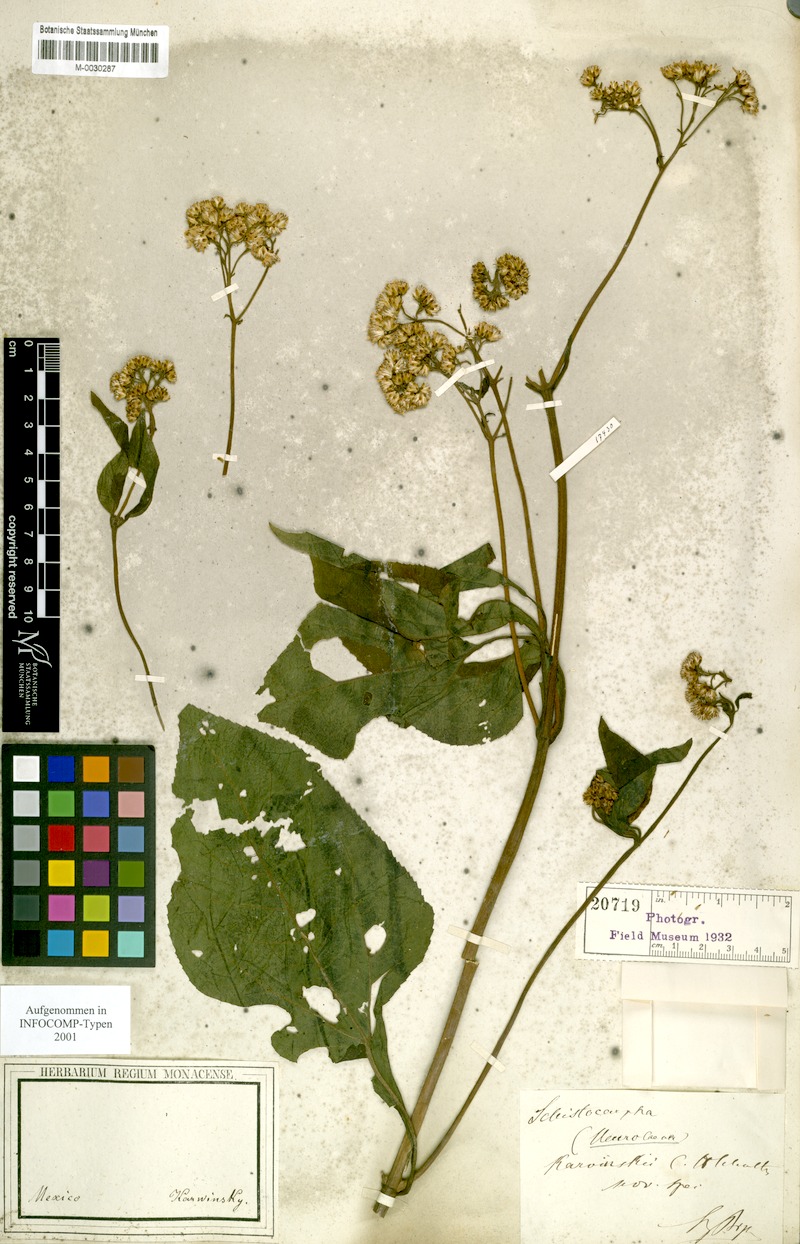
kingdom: Plantae
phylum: Tracheophyta
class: Magnoliopsida
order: Asterales
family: Asteraceae
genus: Neurolaena
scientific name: Neurolaena
